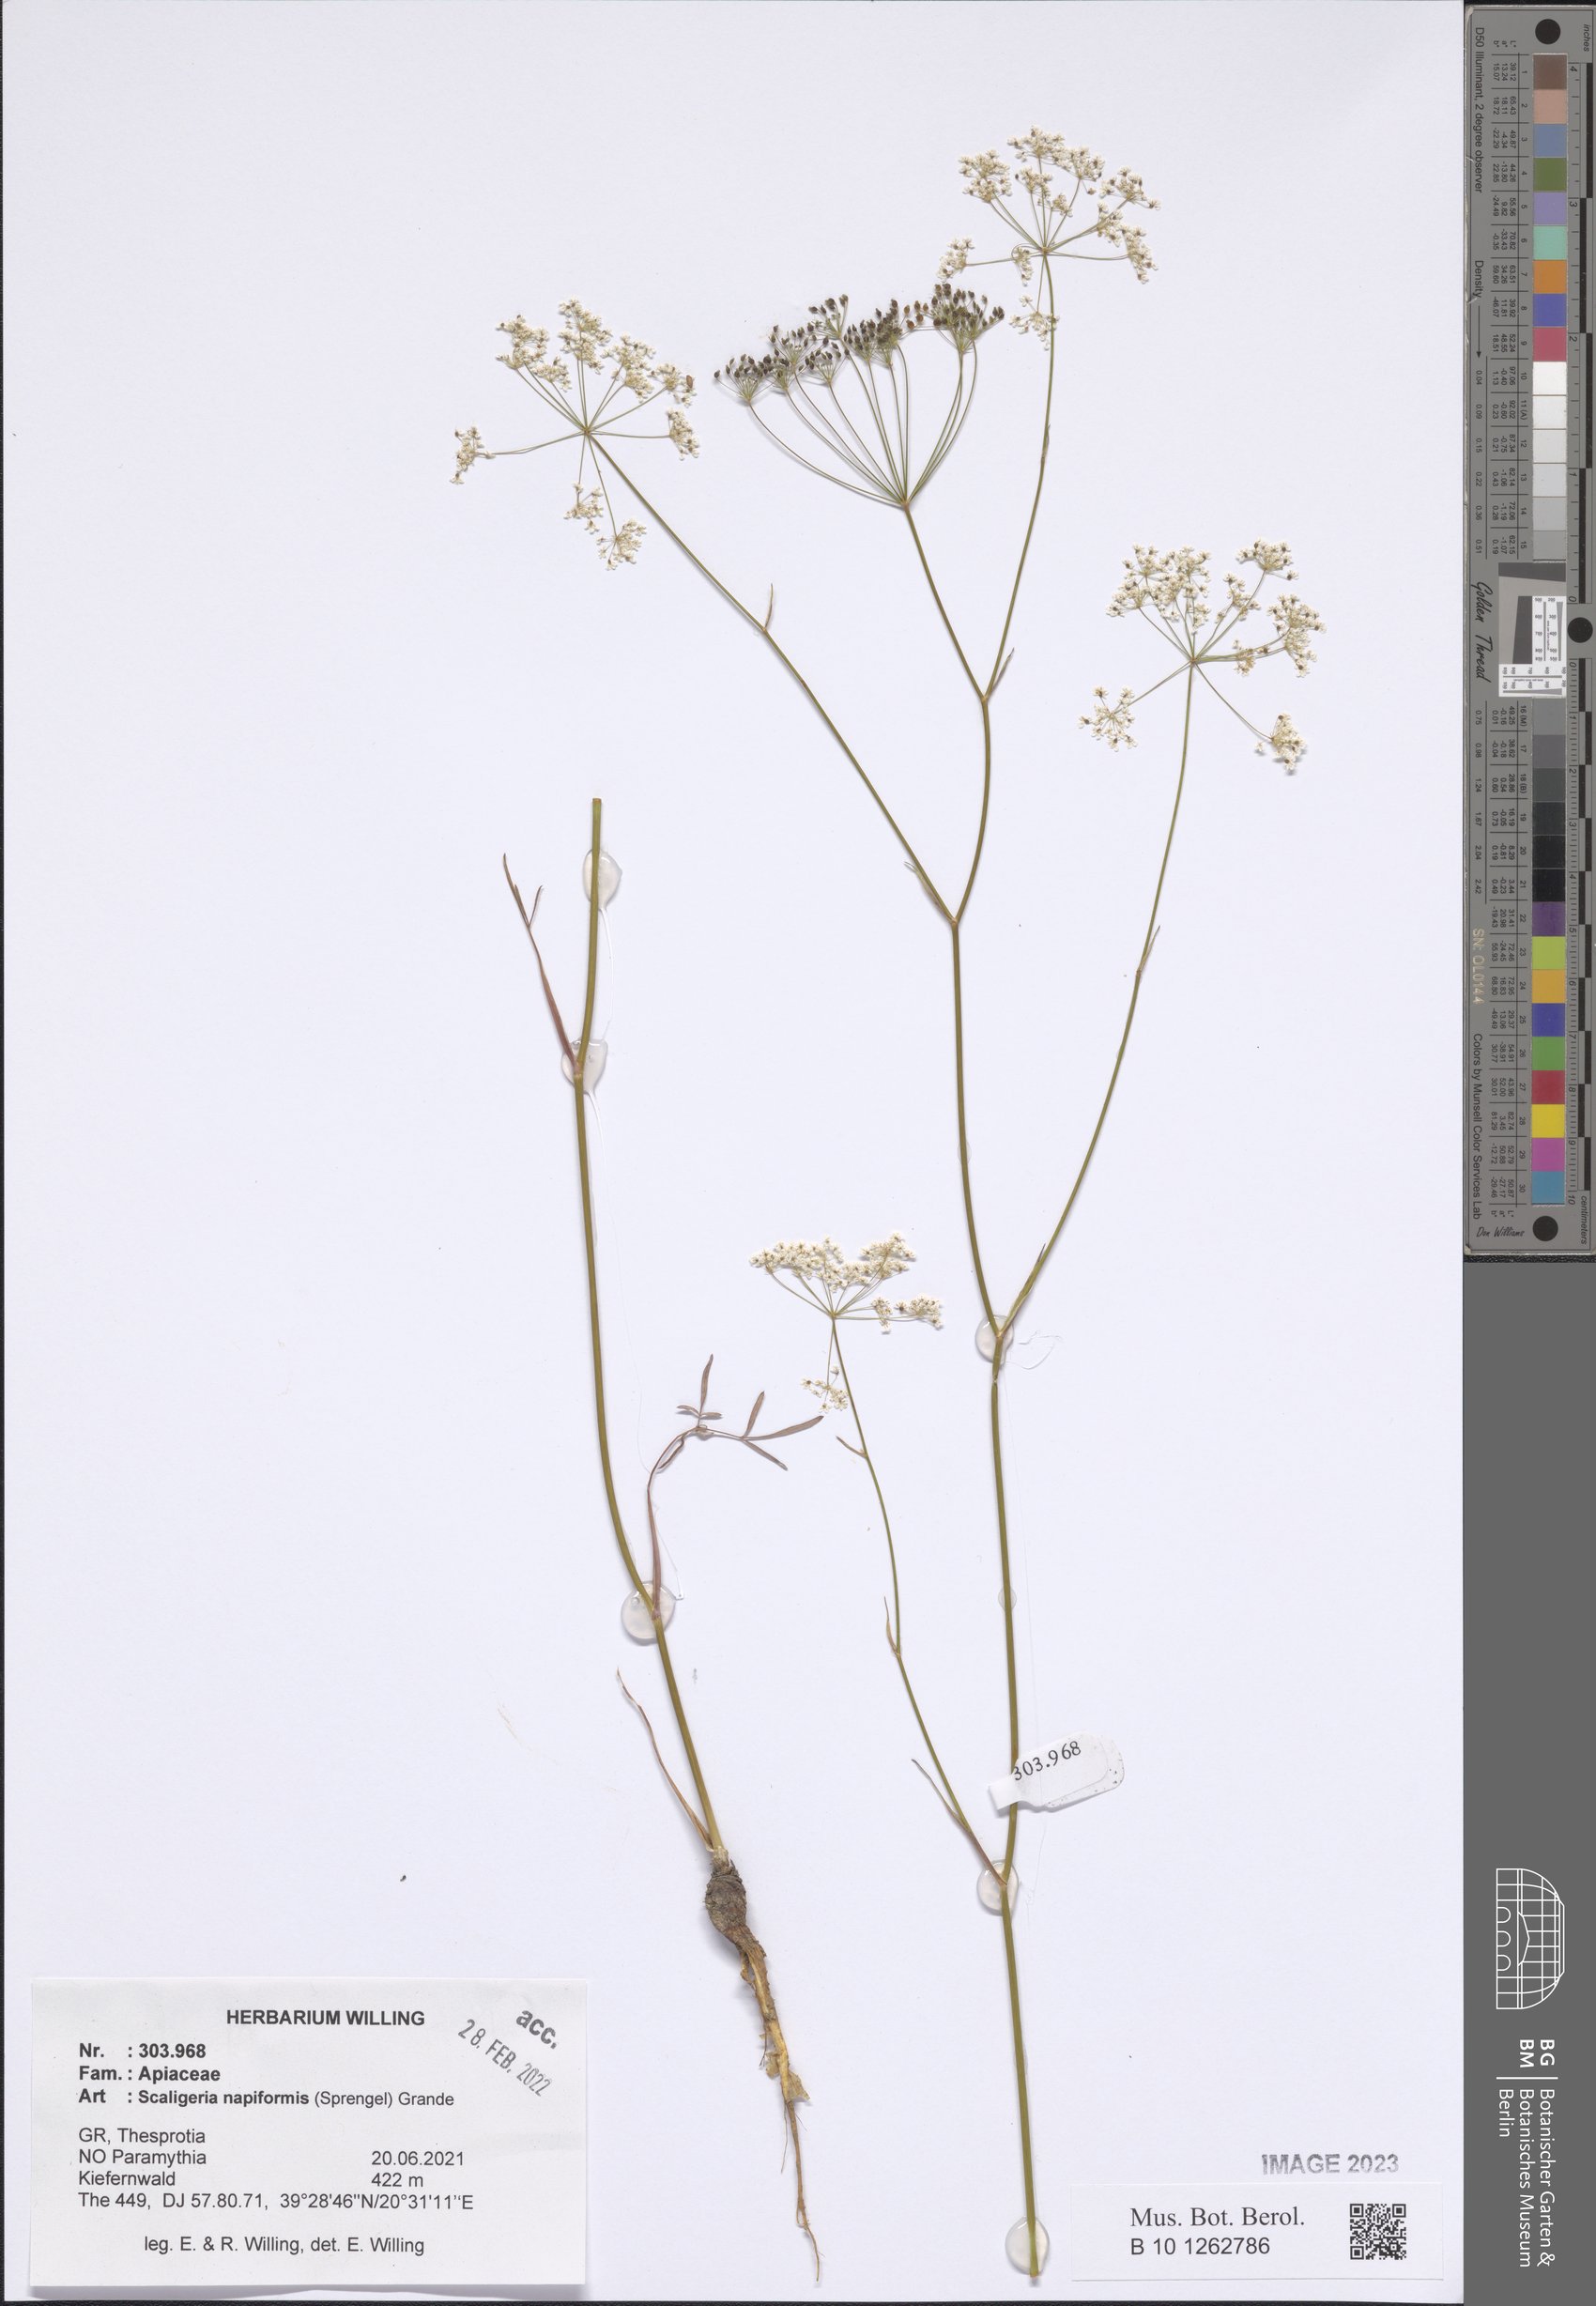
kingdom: Plantae
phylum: Tracheophyta
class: Magnoliopsida
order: Apiales
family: Apiaceae
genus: Scaligeria
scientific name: Scaligeria napiformis
